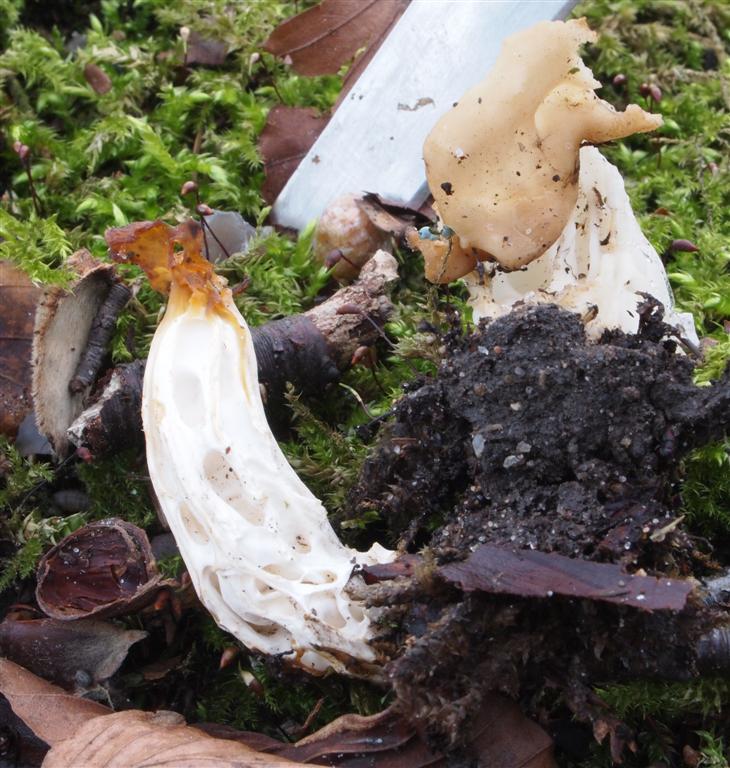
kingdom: Fungi
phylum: Ascomycota
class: Pezizomycetes
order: Pezizales
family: Helvellaceae
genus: Helvella
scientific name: Helvella crispa
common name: kruset foldhat
